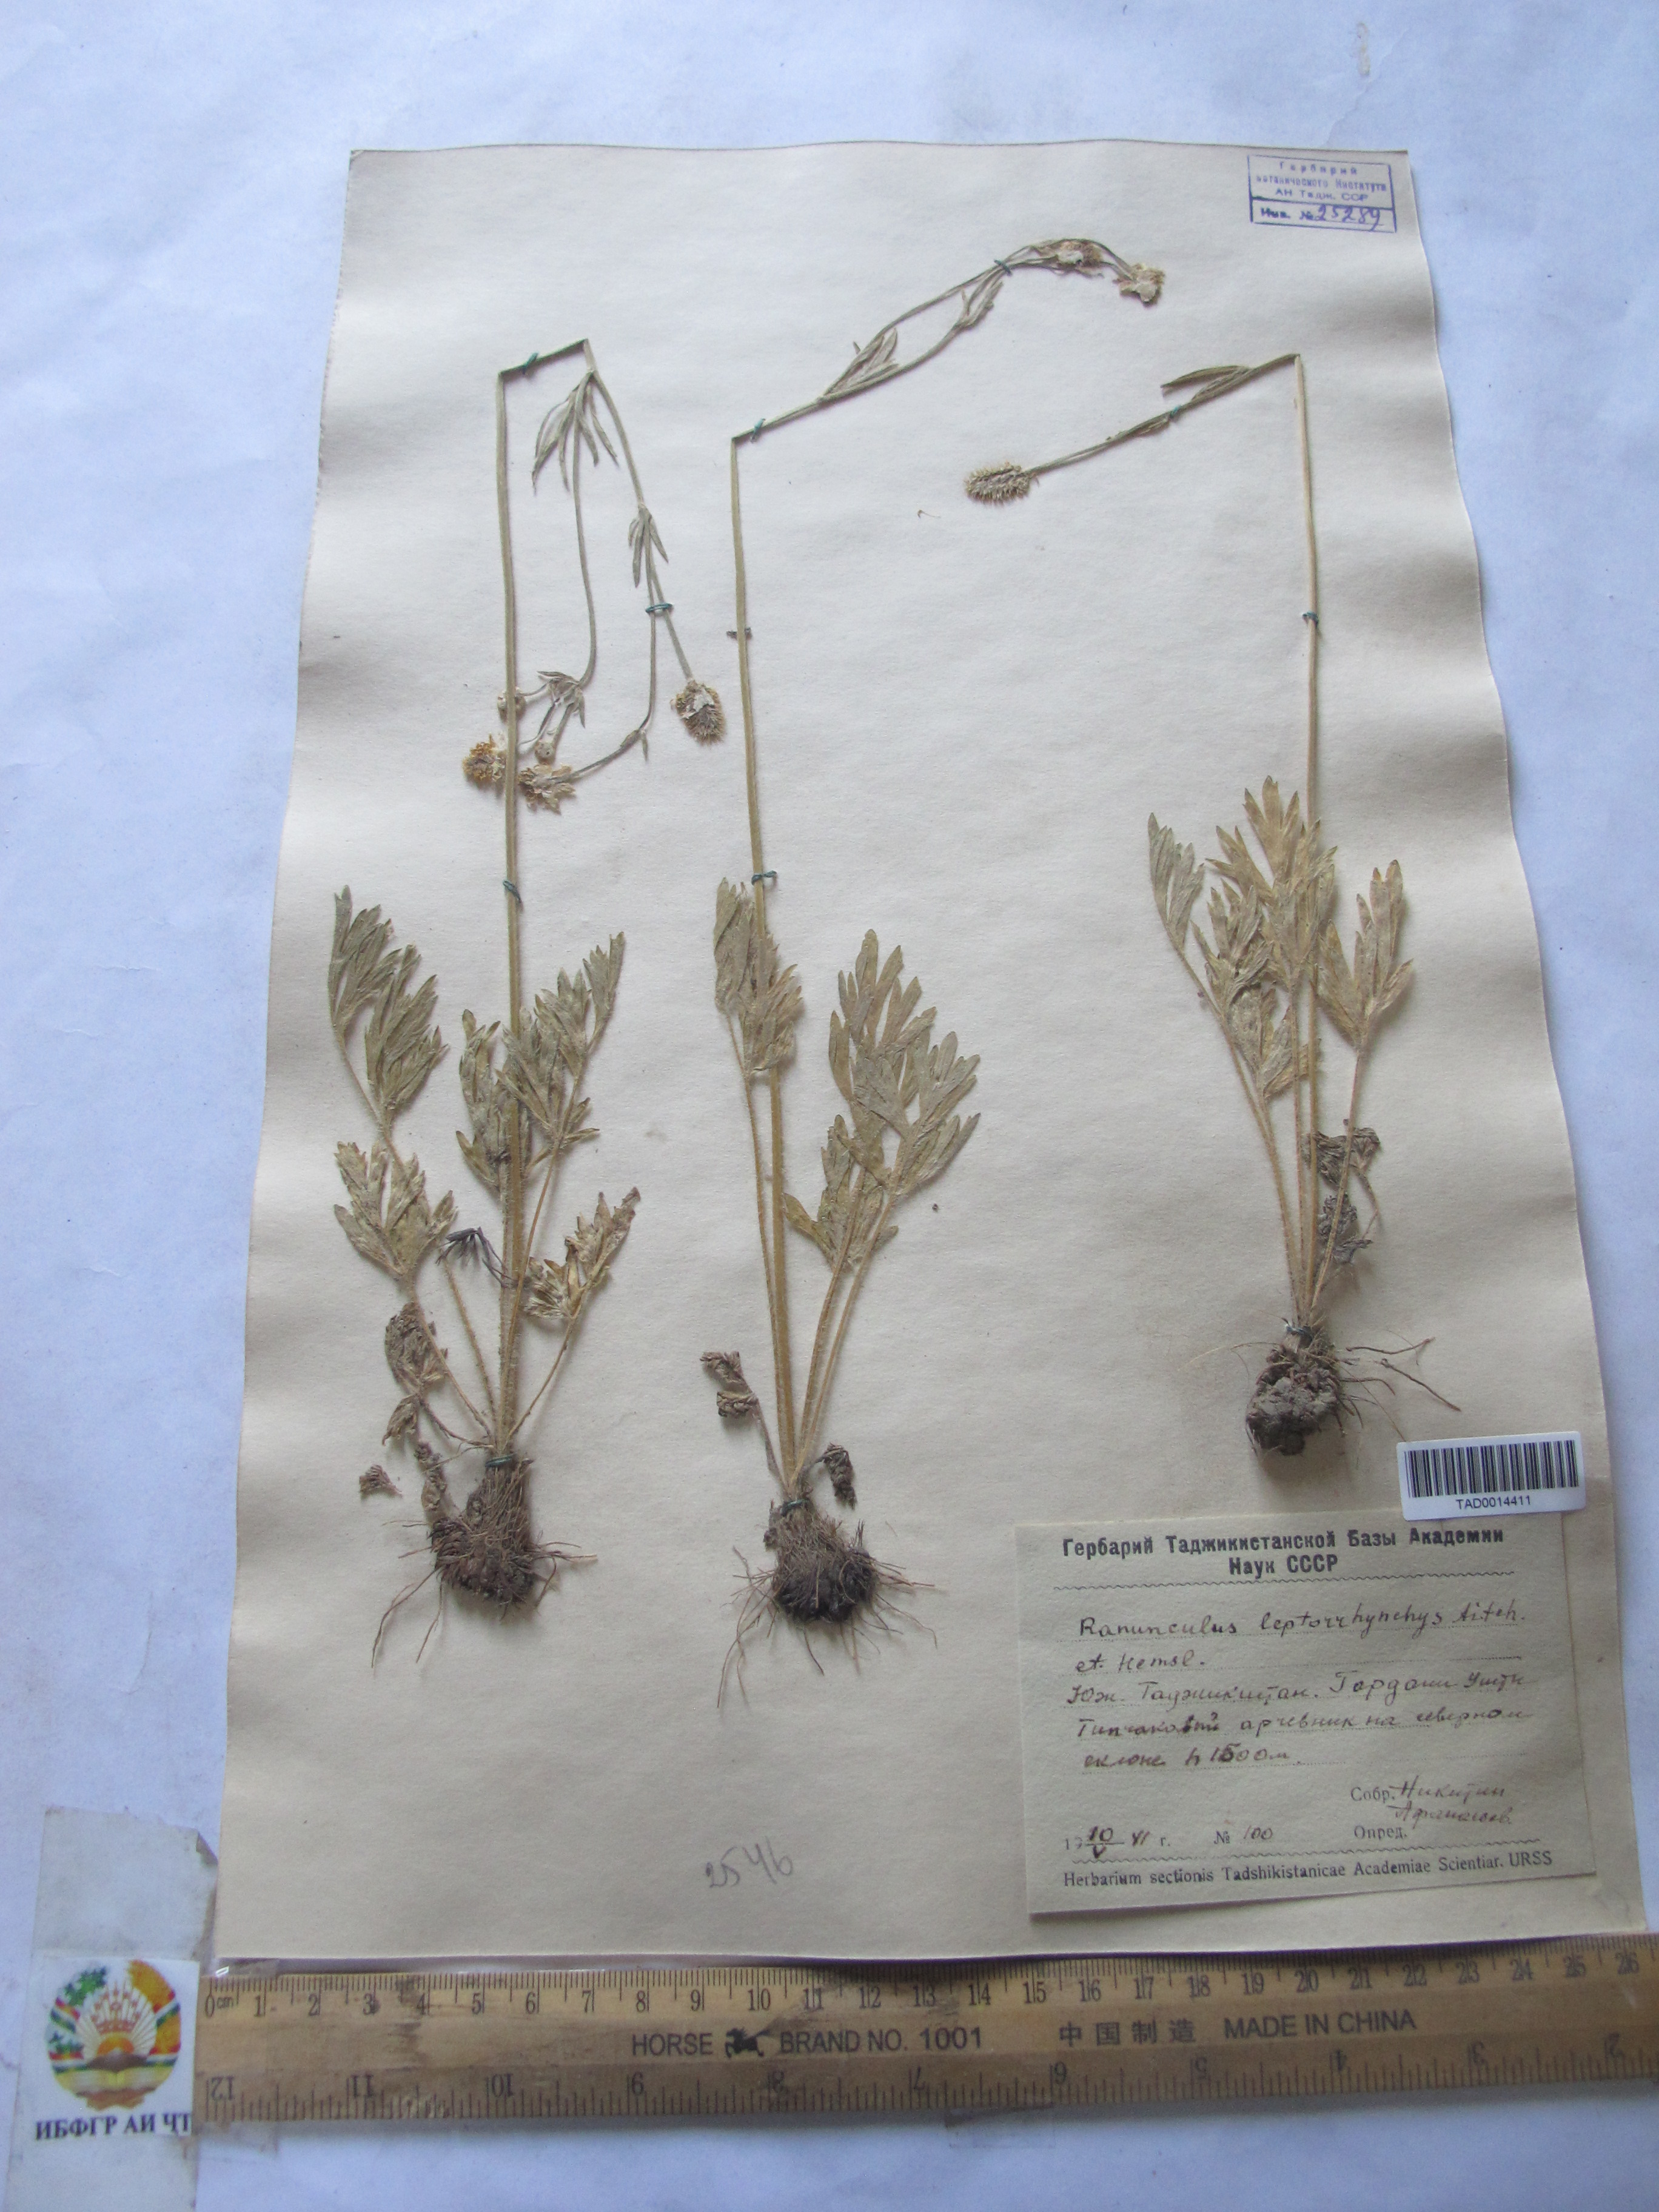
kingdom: Plantae
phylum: Tracheophyta
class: Magnoliopsida
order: Ranunculales
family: Ranunculaceae
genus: Ranunculus
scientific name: Ranunculus leptorrhynchus
